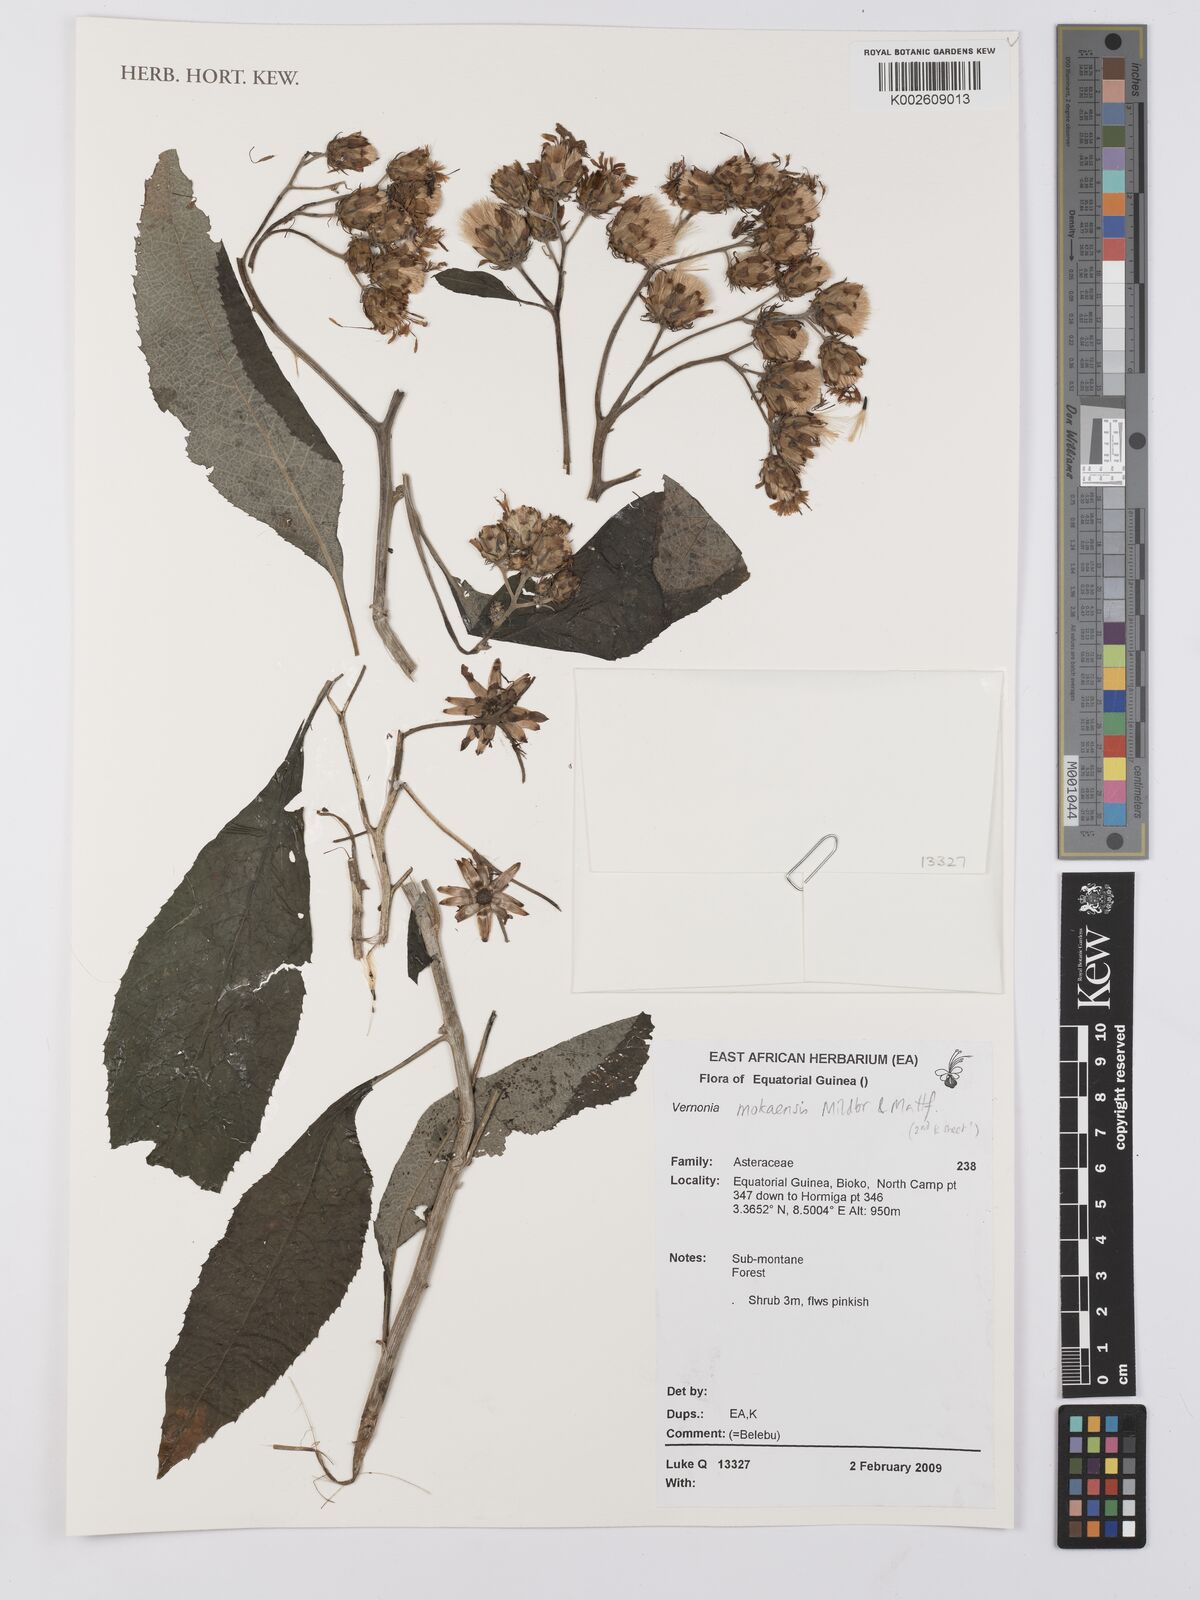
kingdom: Plantae
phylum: Tracheophyta
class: Magnoliopsida
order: Asterales
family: Asteraceae
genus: Baccharoides
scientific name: Baccharoides calvoana
